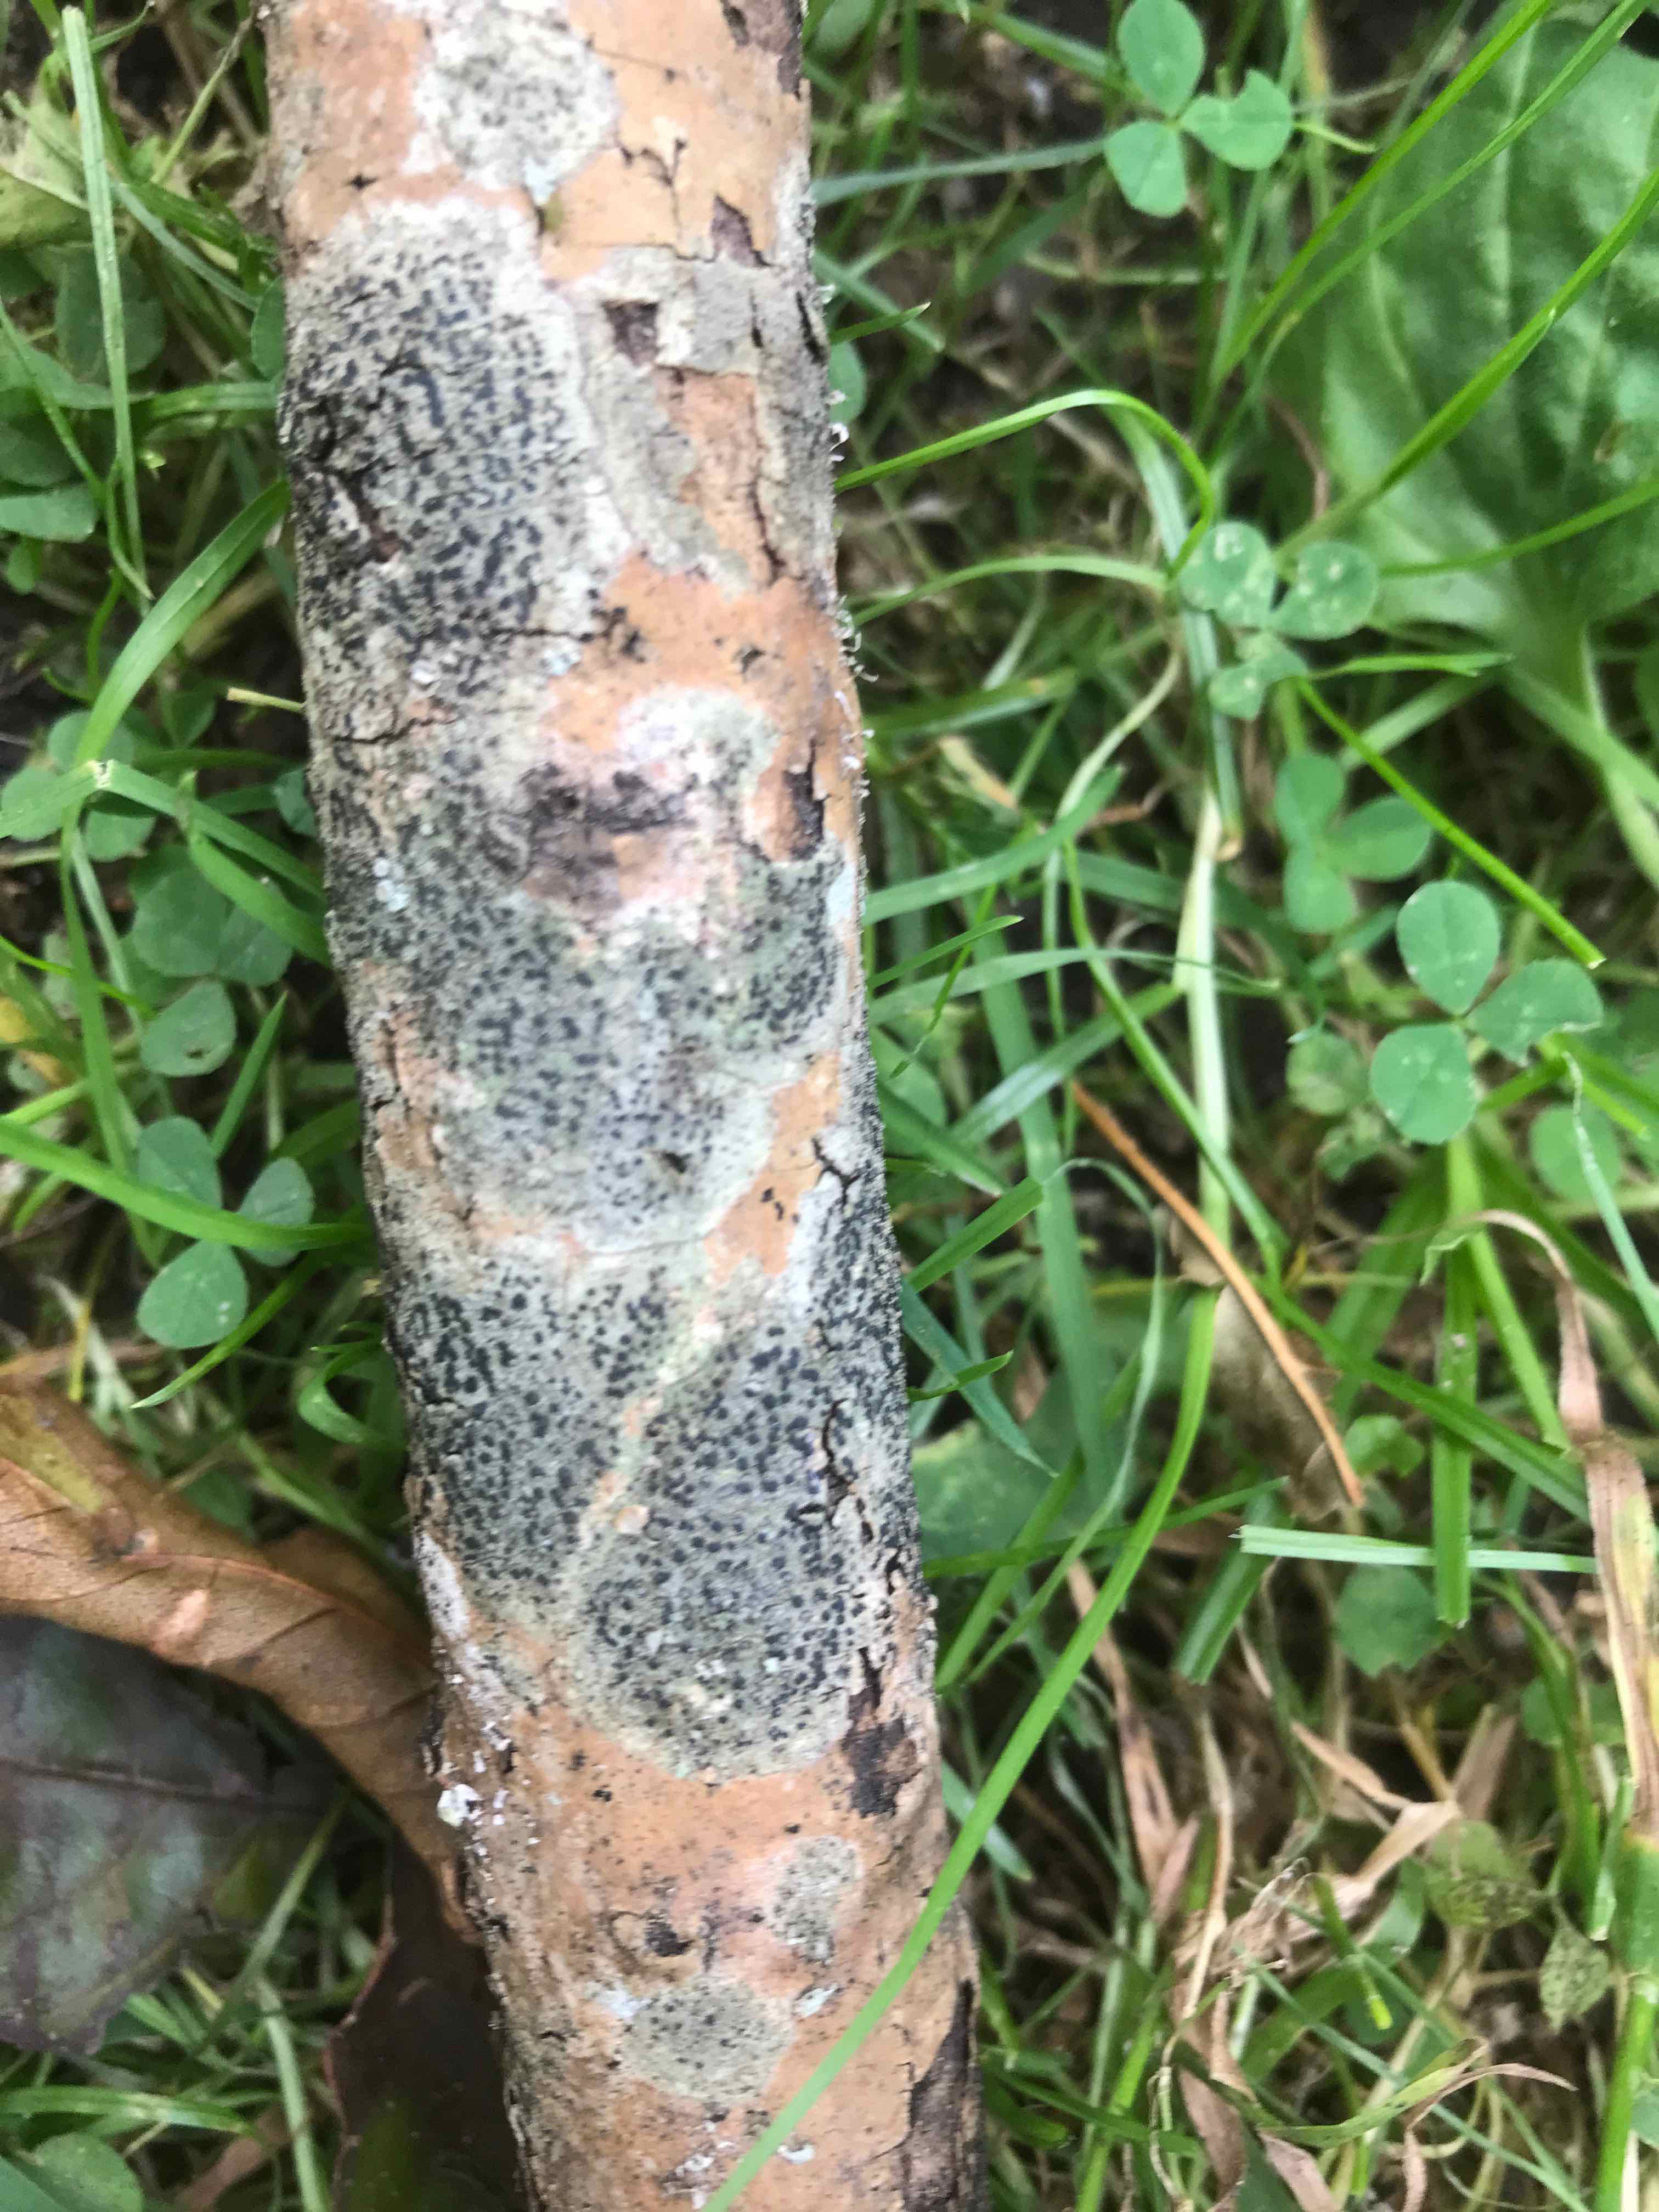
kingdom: Fungi
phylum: Ascomycota
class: Lecanoromycetes
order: Lecanorales
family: Lecanoraceae
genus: Lecidella
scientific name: Lecidella elaeochroma
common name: grågrøn skivelav
